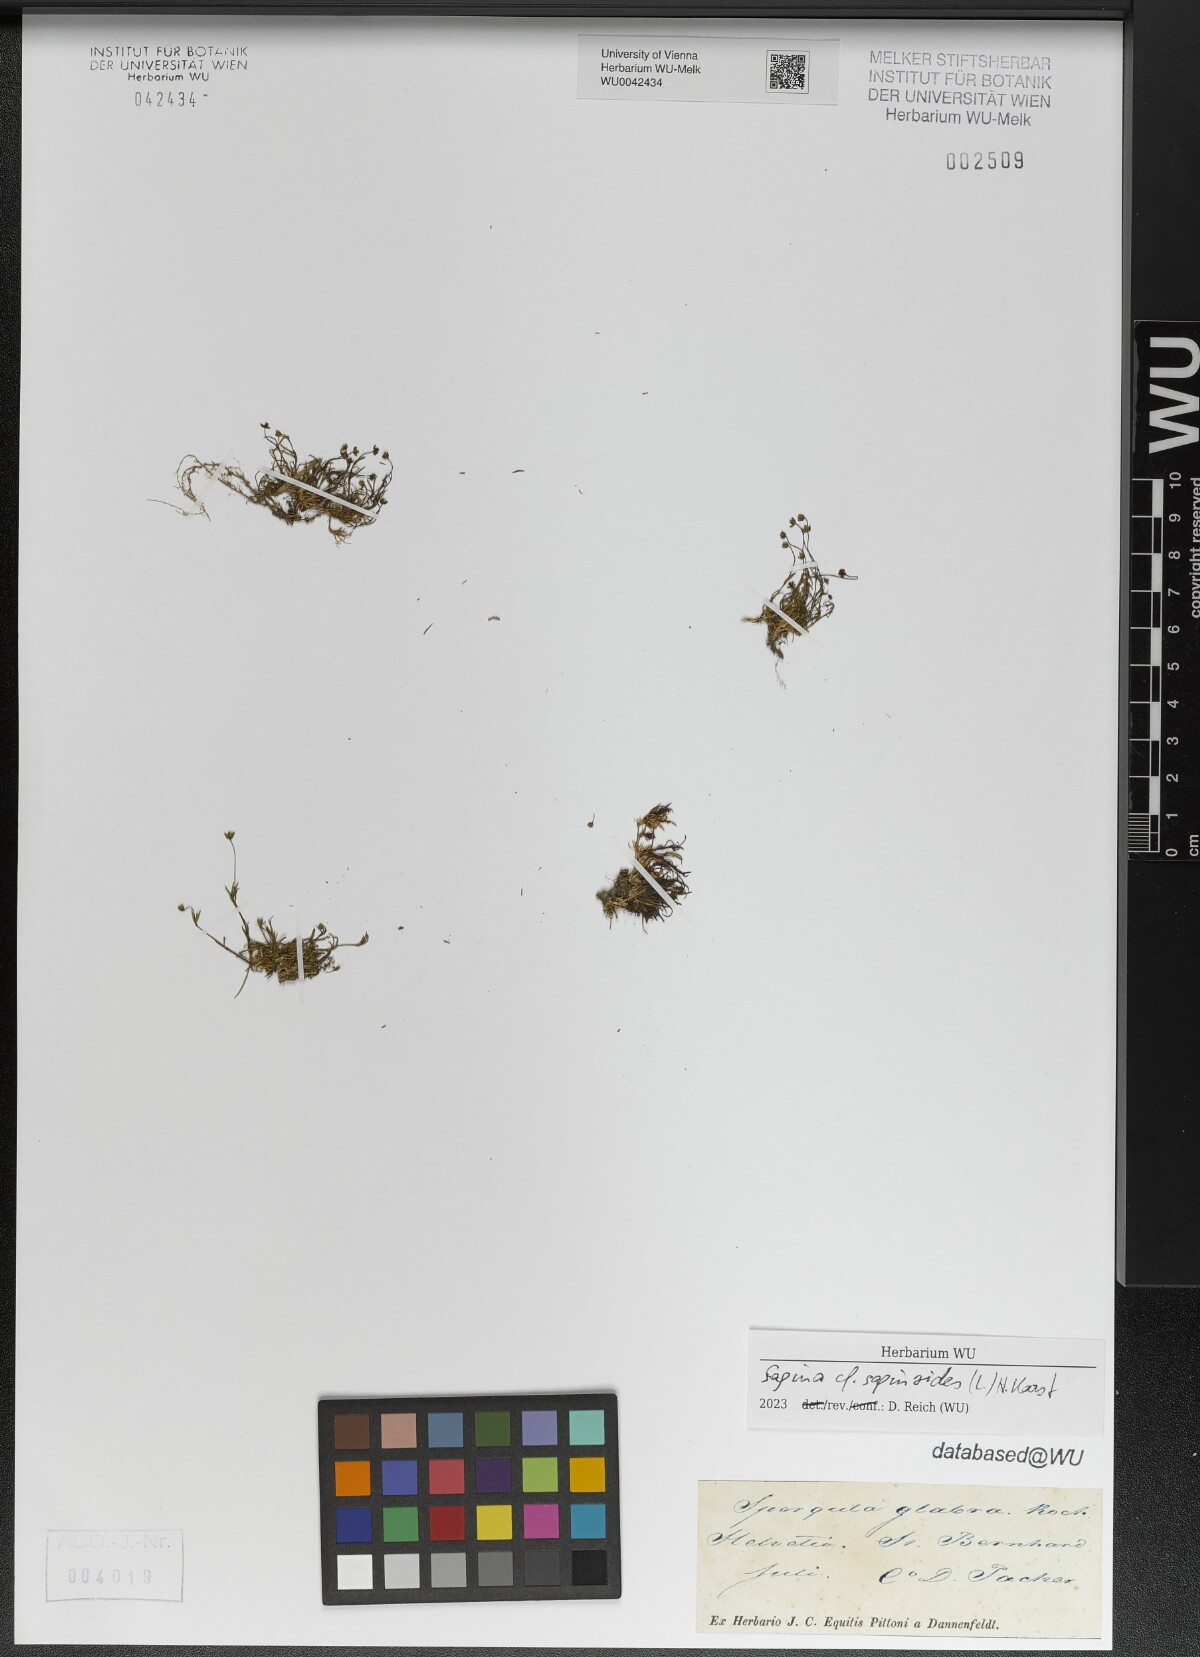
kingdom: Plantae
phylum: Tracheophyta
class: Magnoliopsida
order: Caryophyllales
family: Caryophyllaceae
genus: Sagina
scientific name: Sagina saginoides
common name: Alpine pearlwort
